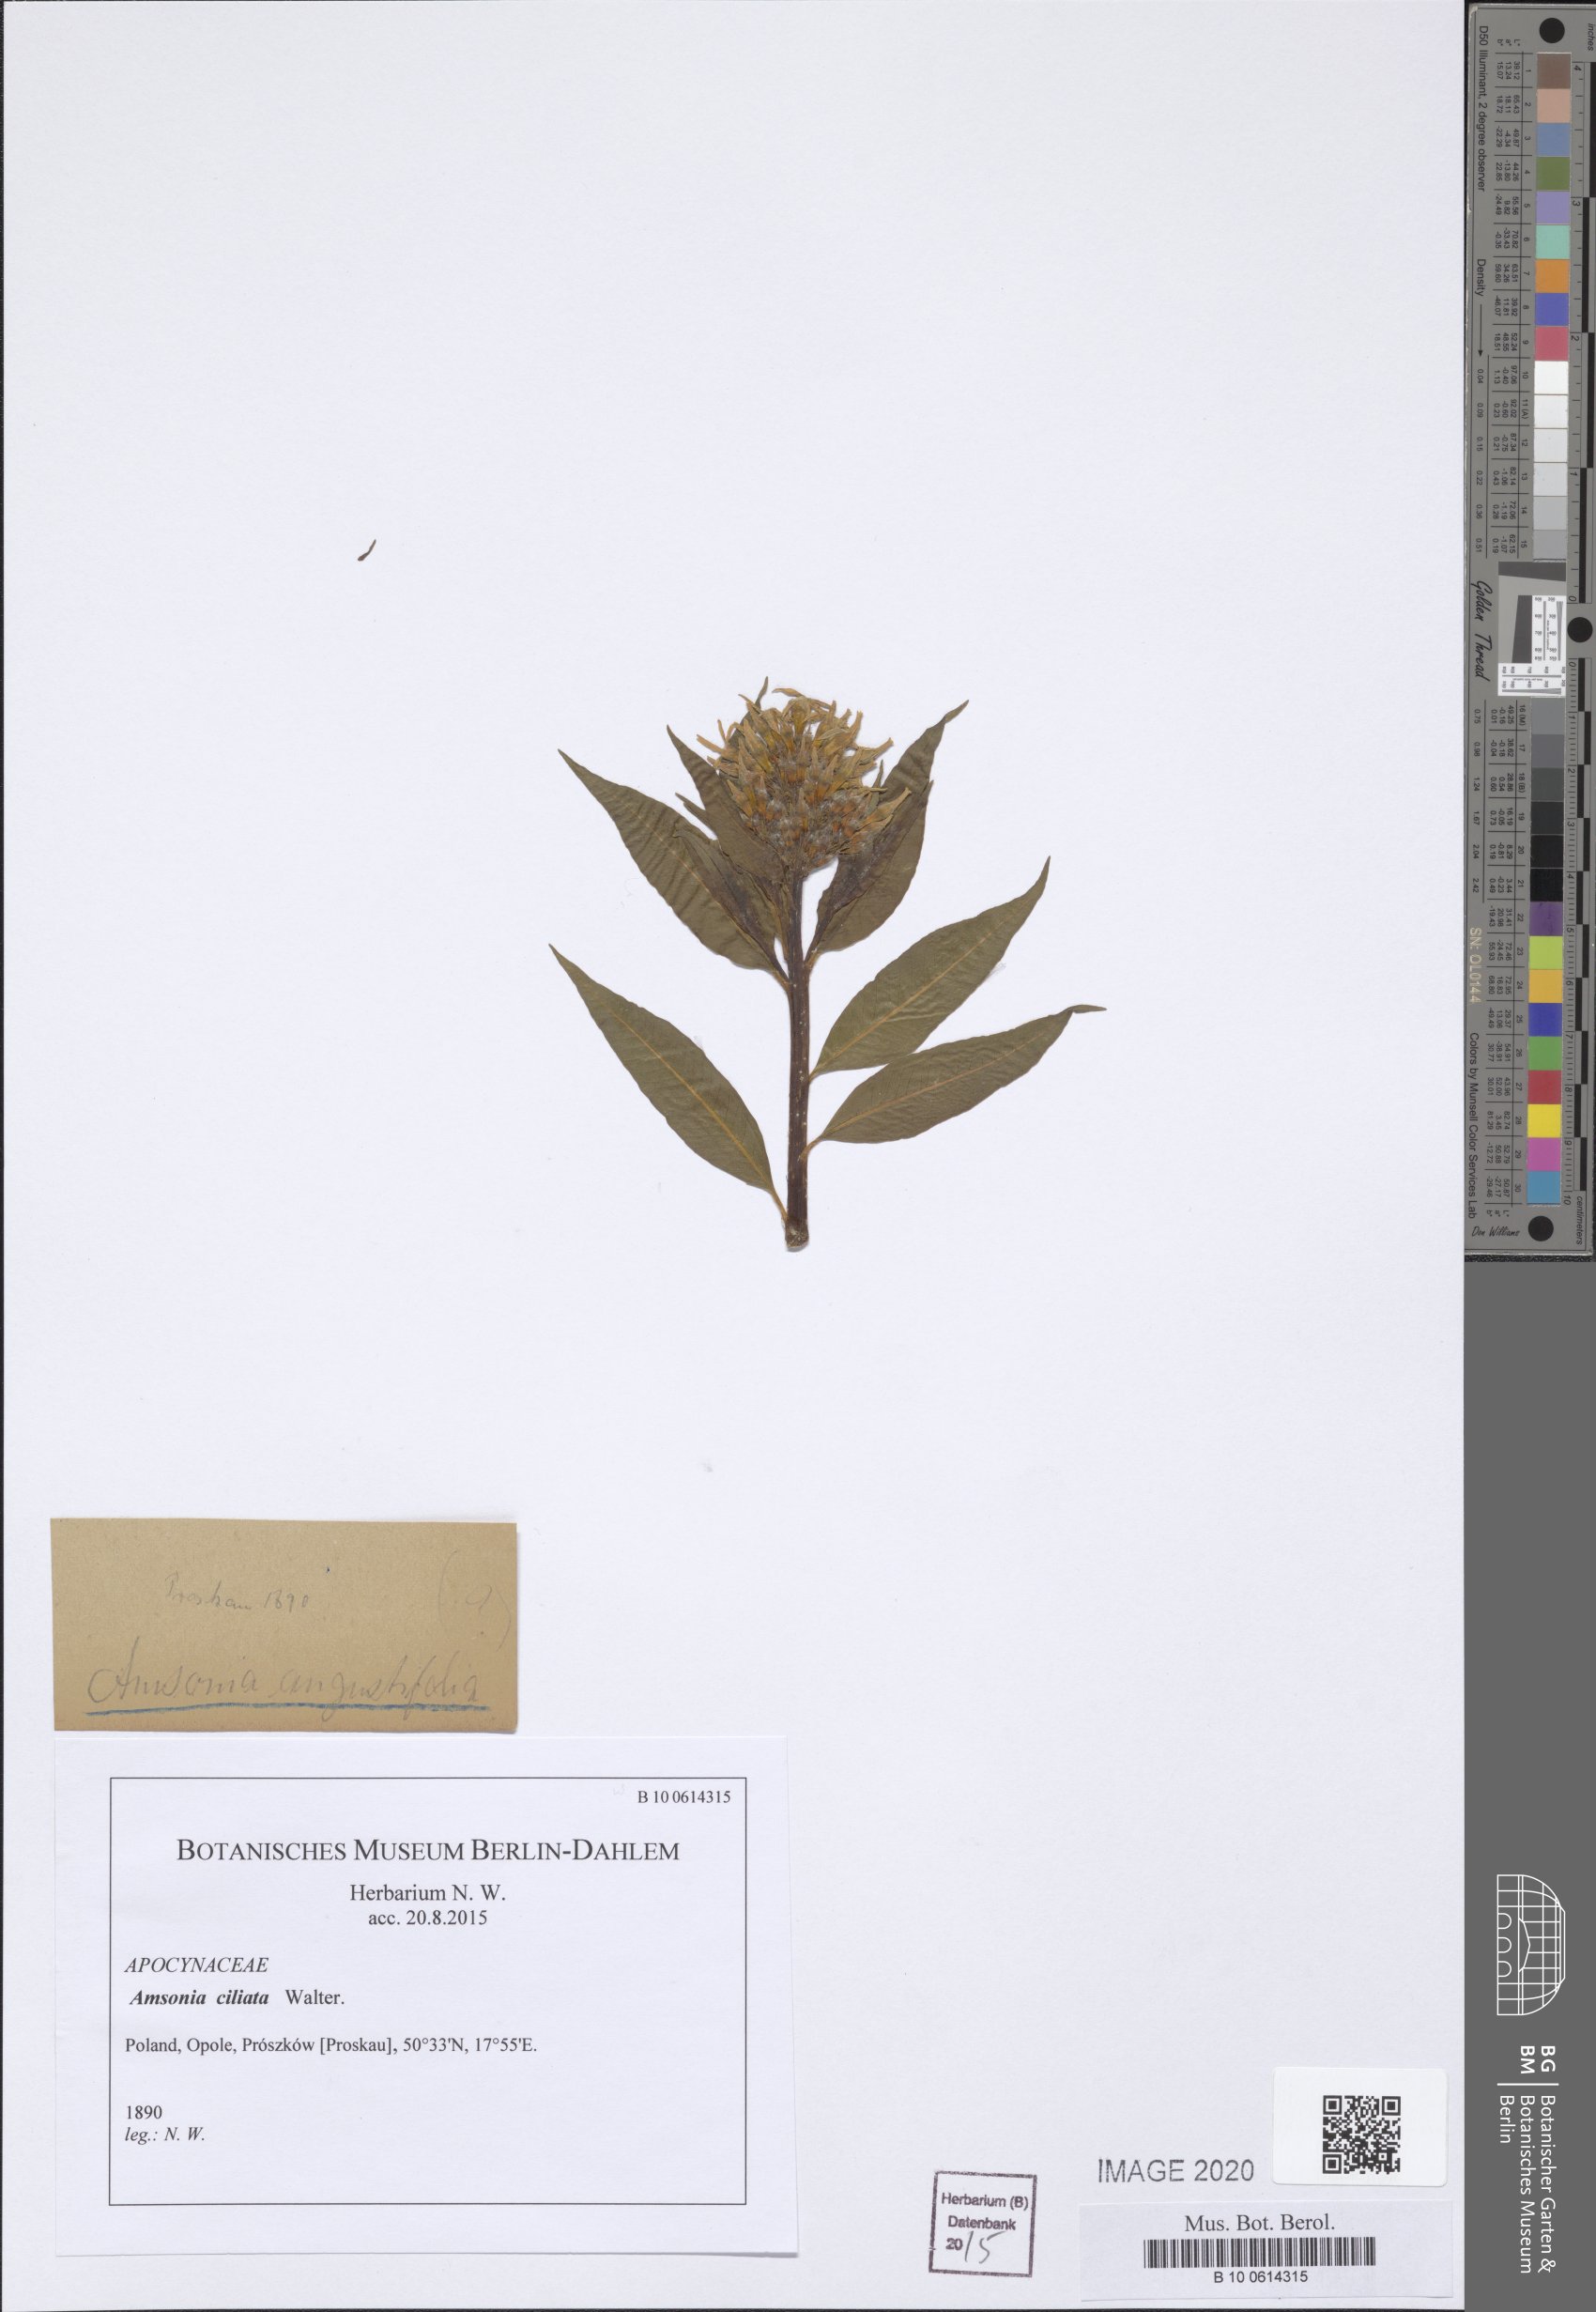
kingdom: Plantae
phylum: Tracheophyta
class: Magnoliopsida
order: Gentianales
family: Apocynaceae
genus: Amsonia
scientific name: Amsonia ciliata
